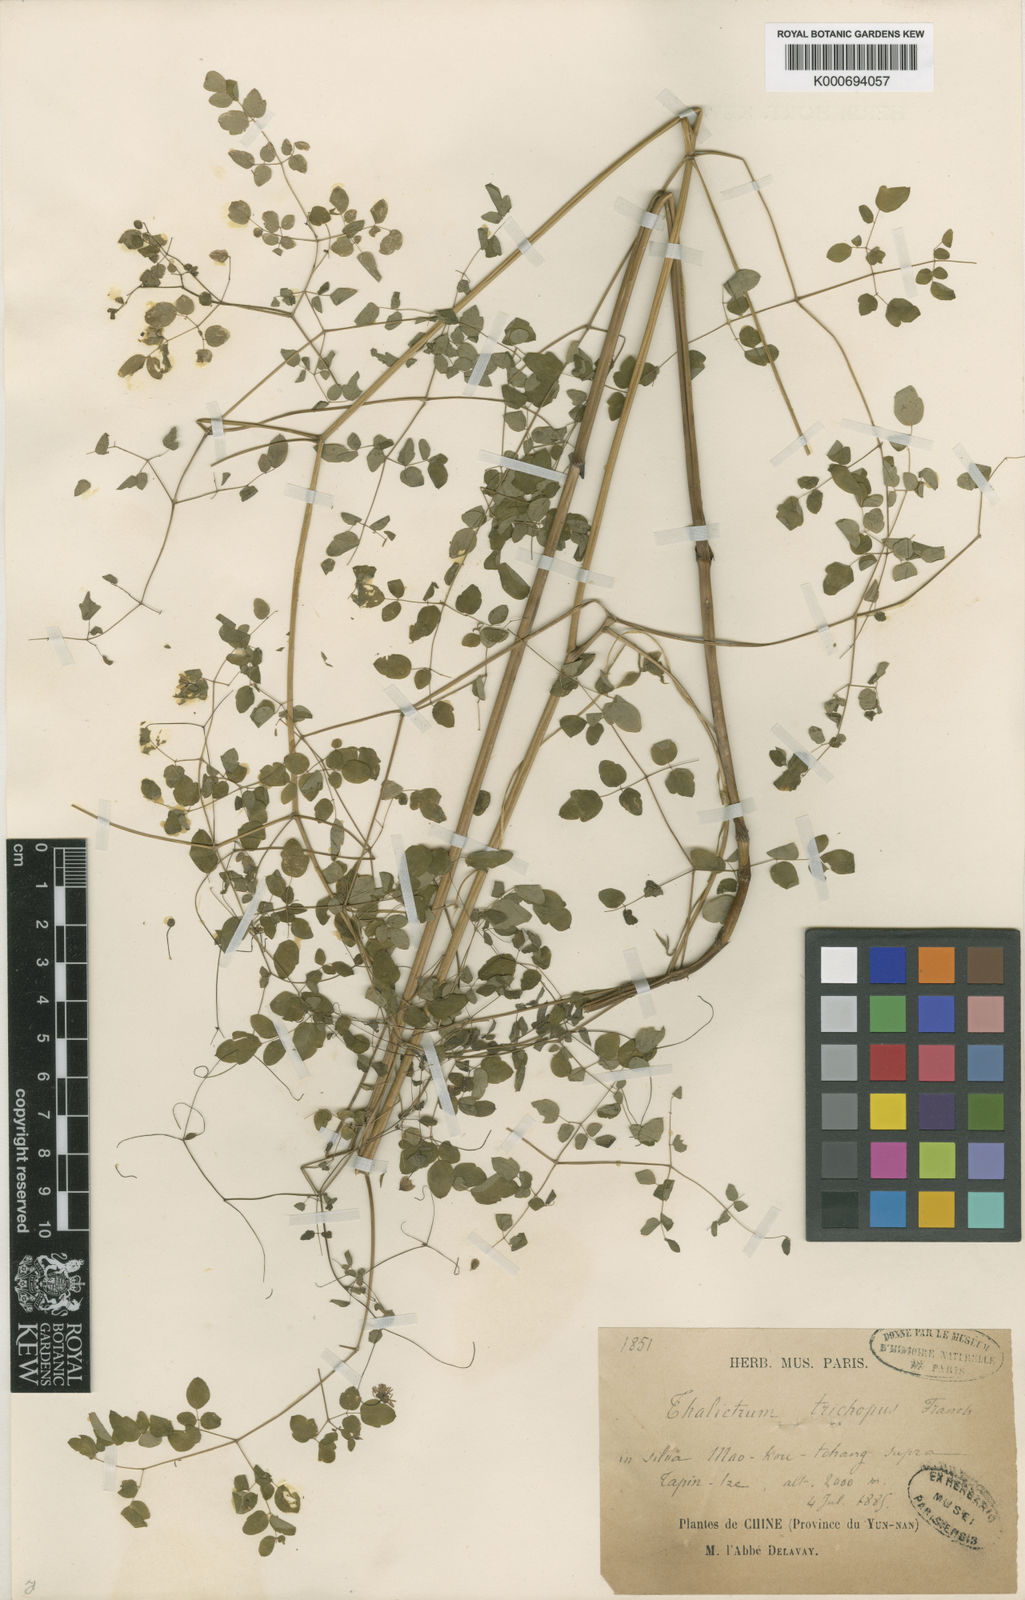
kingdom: Plantae
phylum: Tracheophyta
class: Magnoliopsida
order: Ranunculales
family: Ranunculaceae
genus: Thalictrum
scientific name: Thalictrum trichopus
